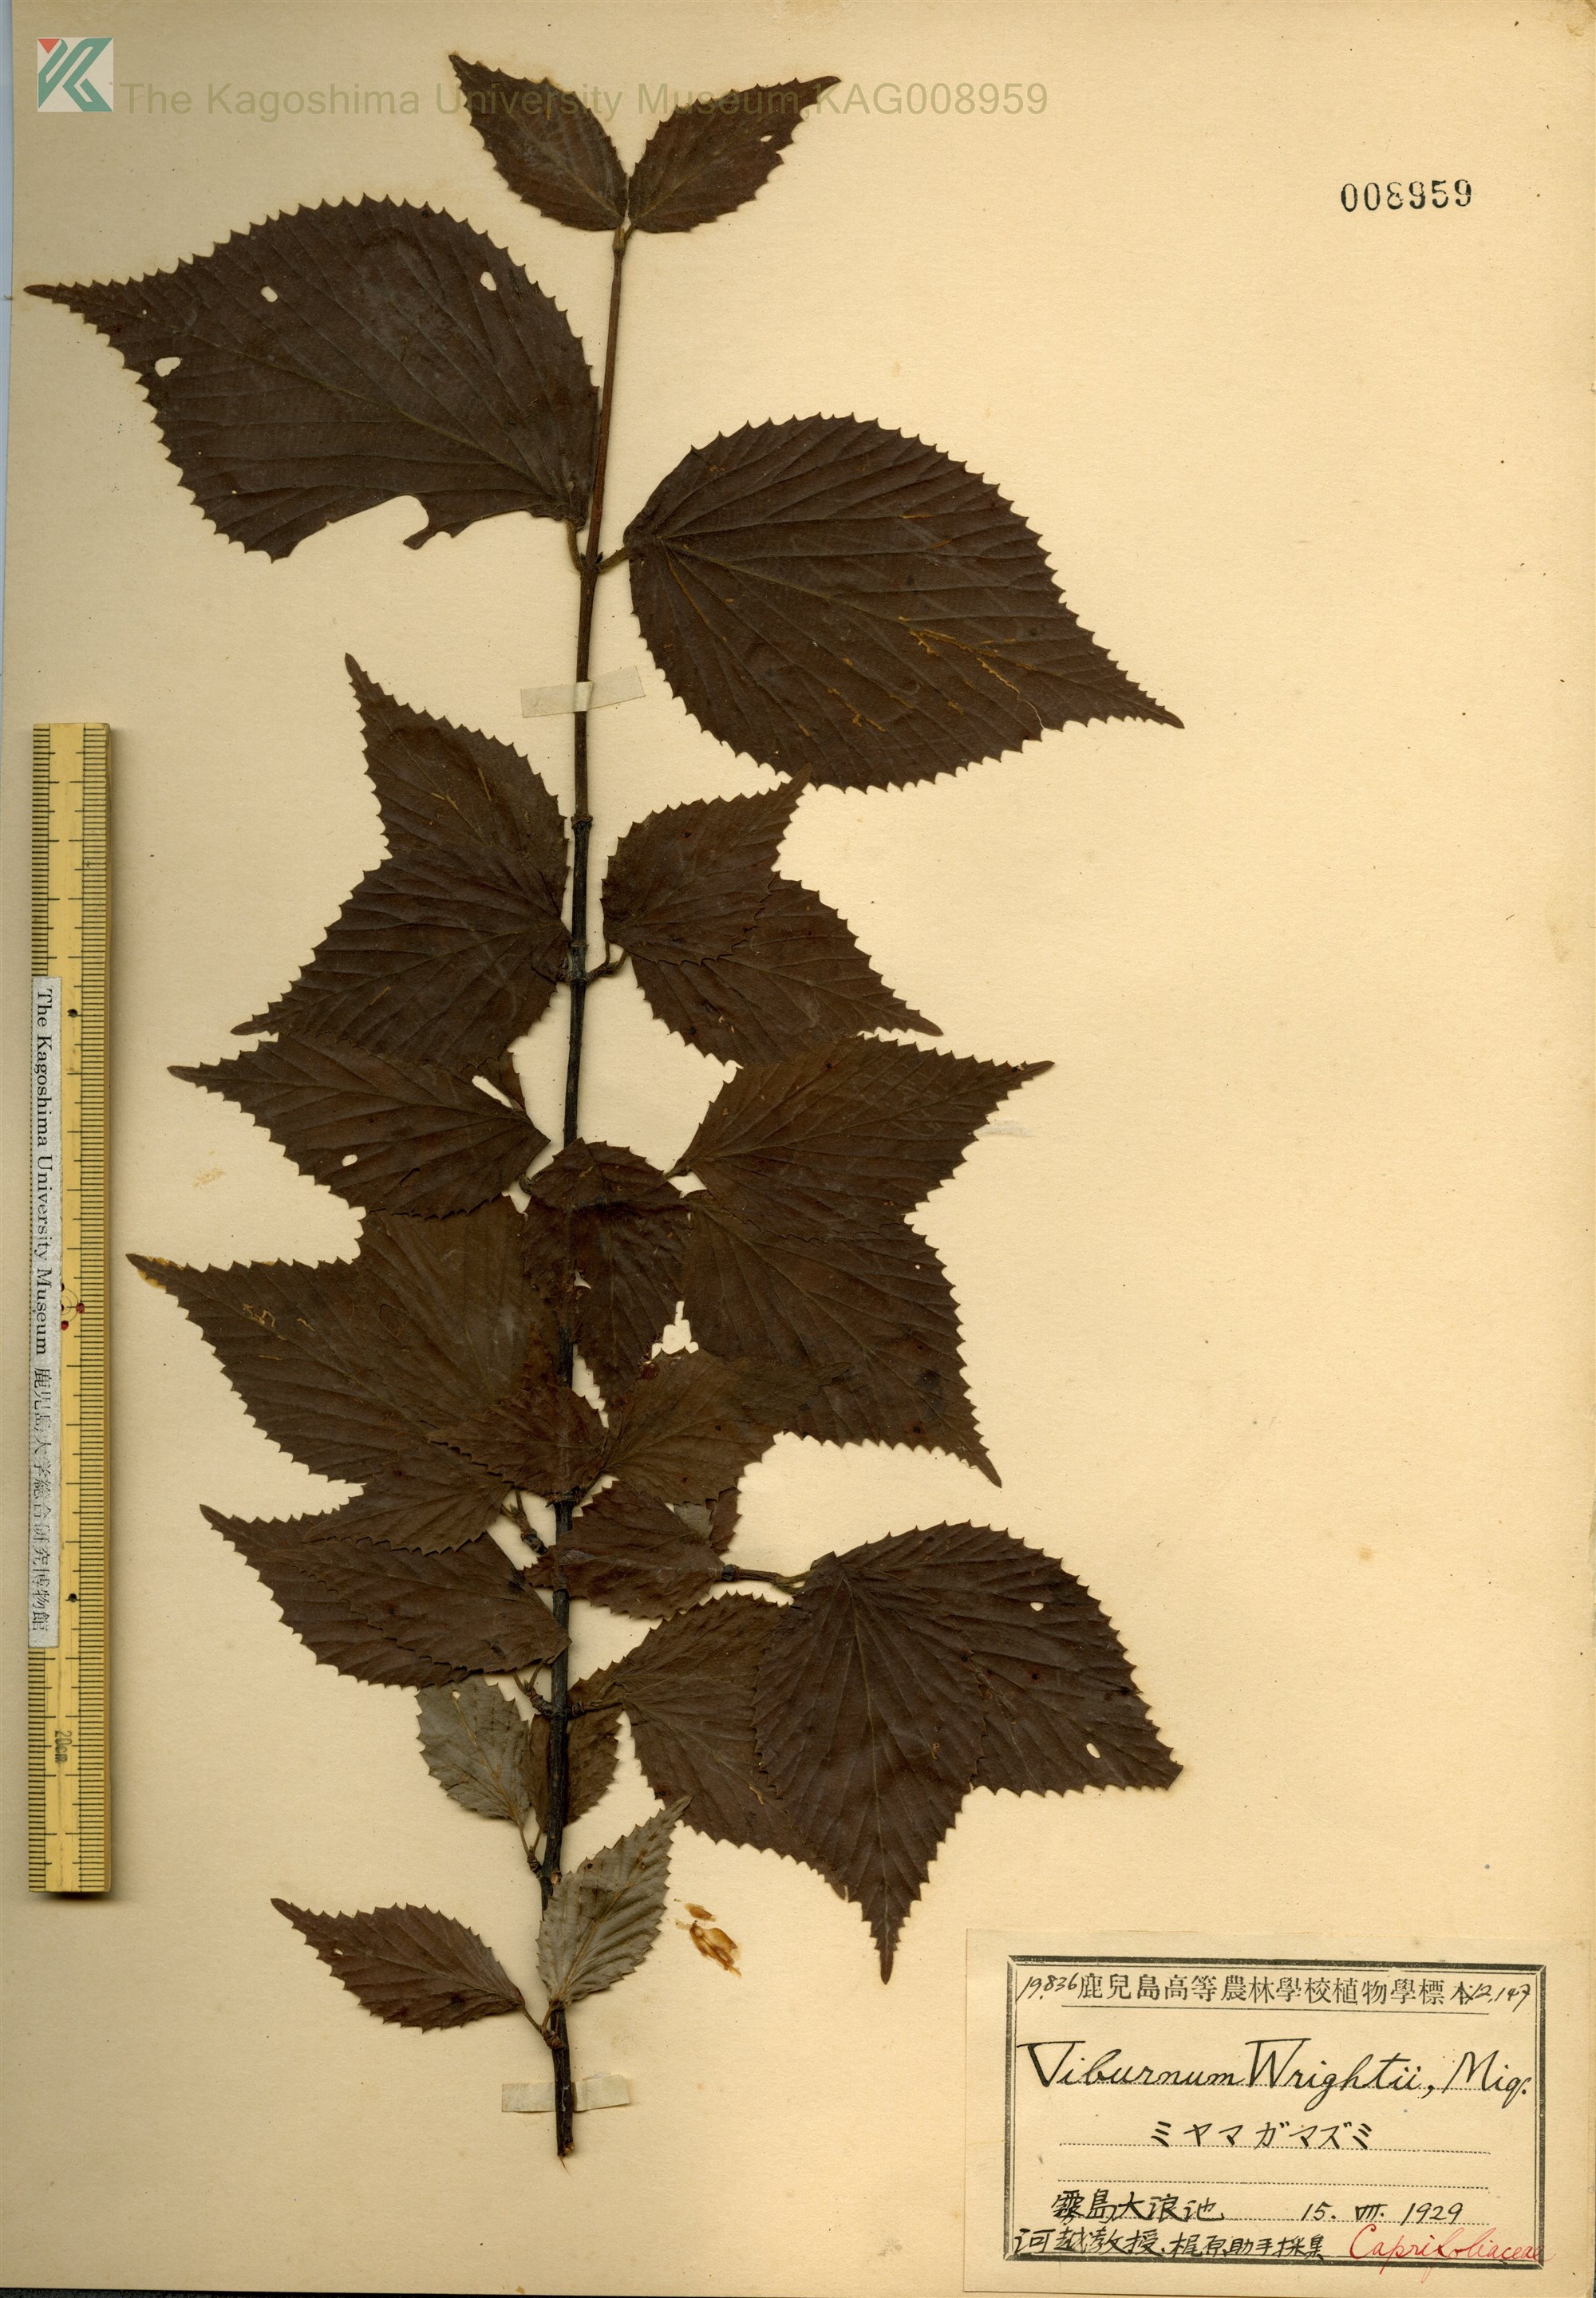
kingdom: Plantae
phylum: Tracheophyta
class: Magnoliopsida
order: Dipsacales
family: Viburnaceae
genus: Viburnum
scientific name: Viburnum wrightii
